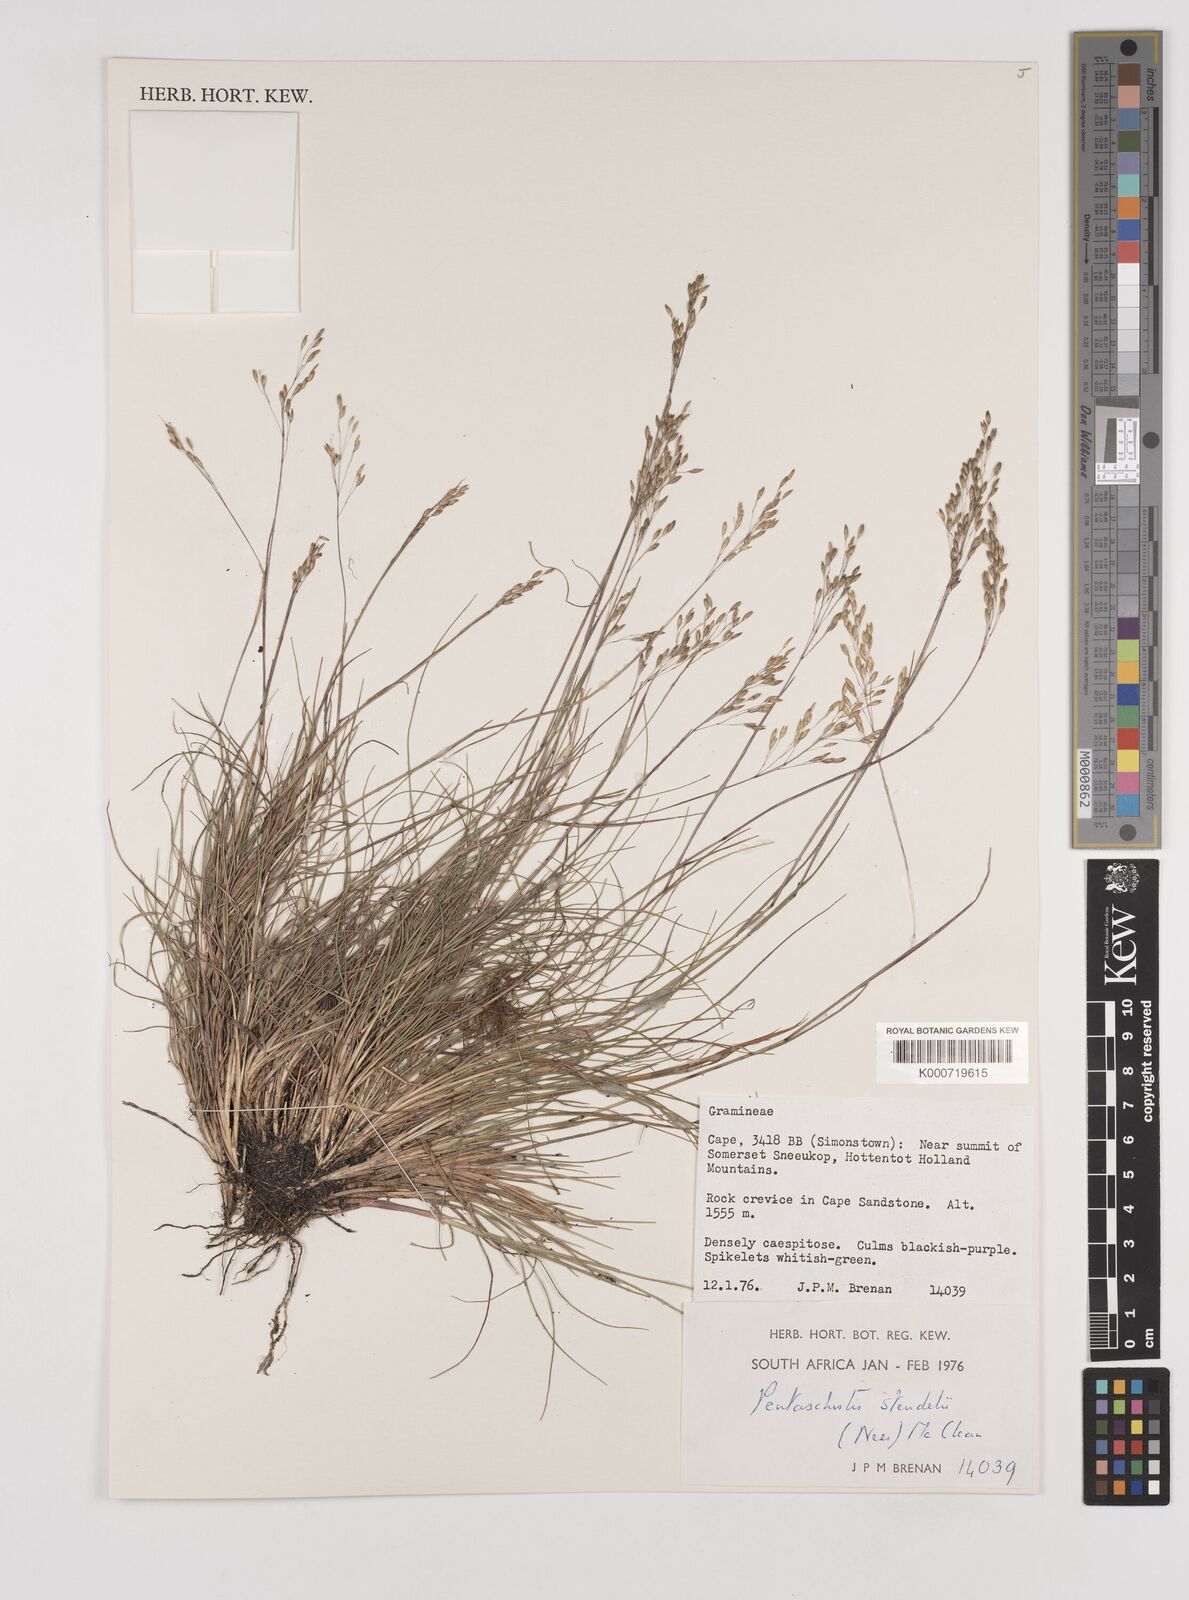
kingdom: Plantae
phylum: Tracheophyta
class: Liliopsida
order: Poales
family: Poaceae
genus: Pentameris
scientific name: Pentameris malouinensis
